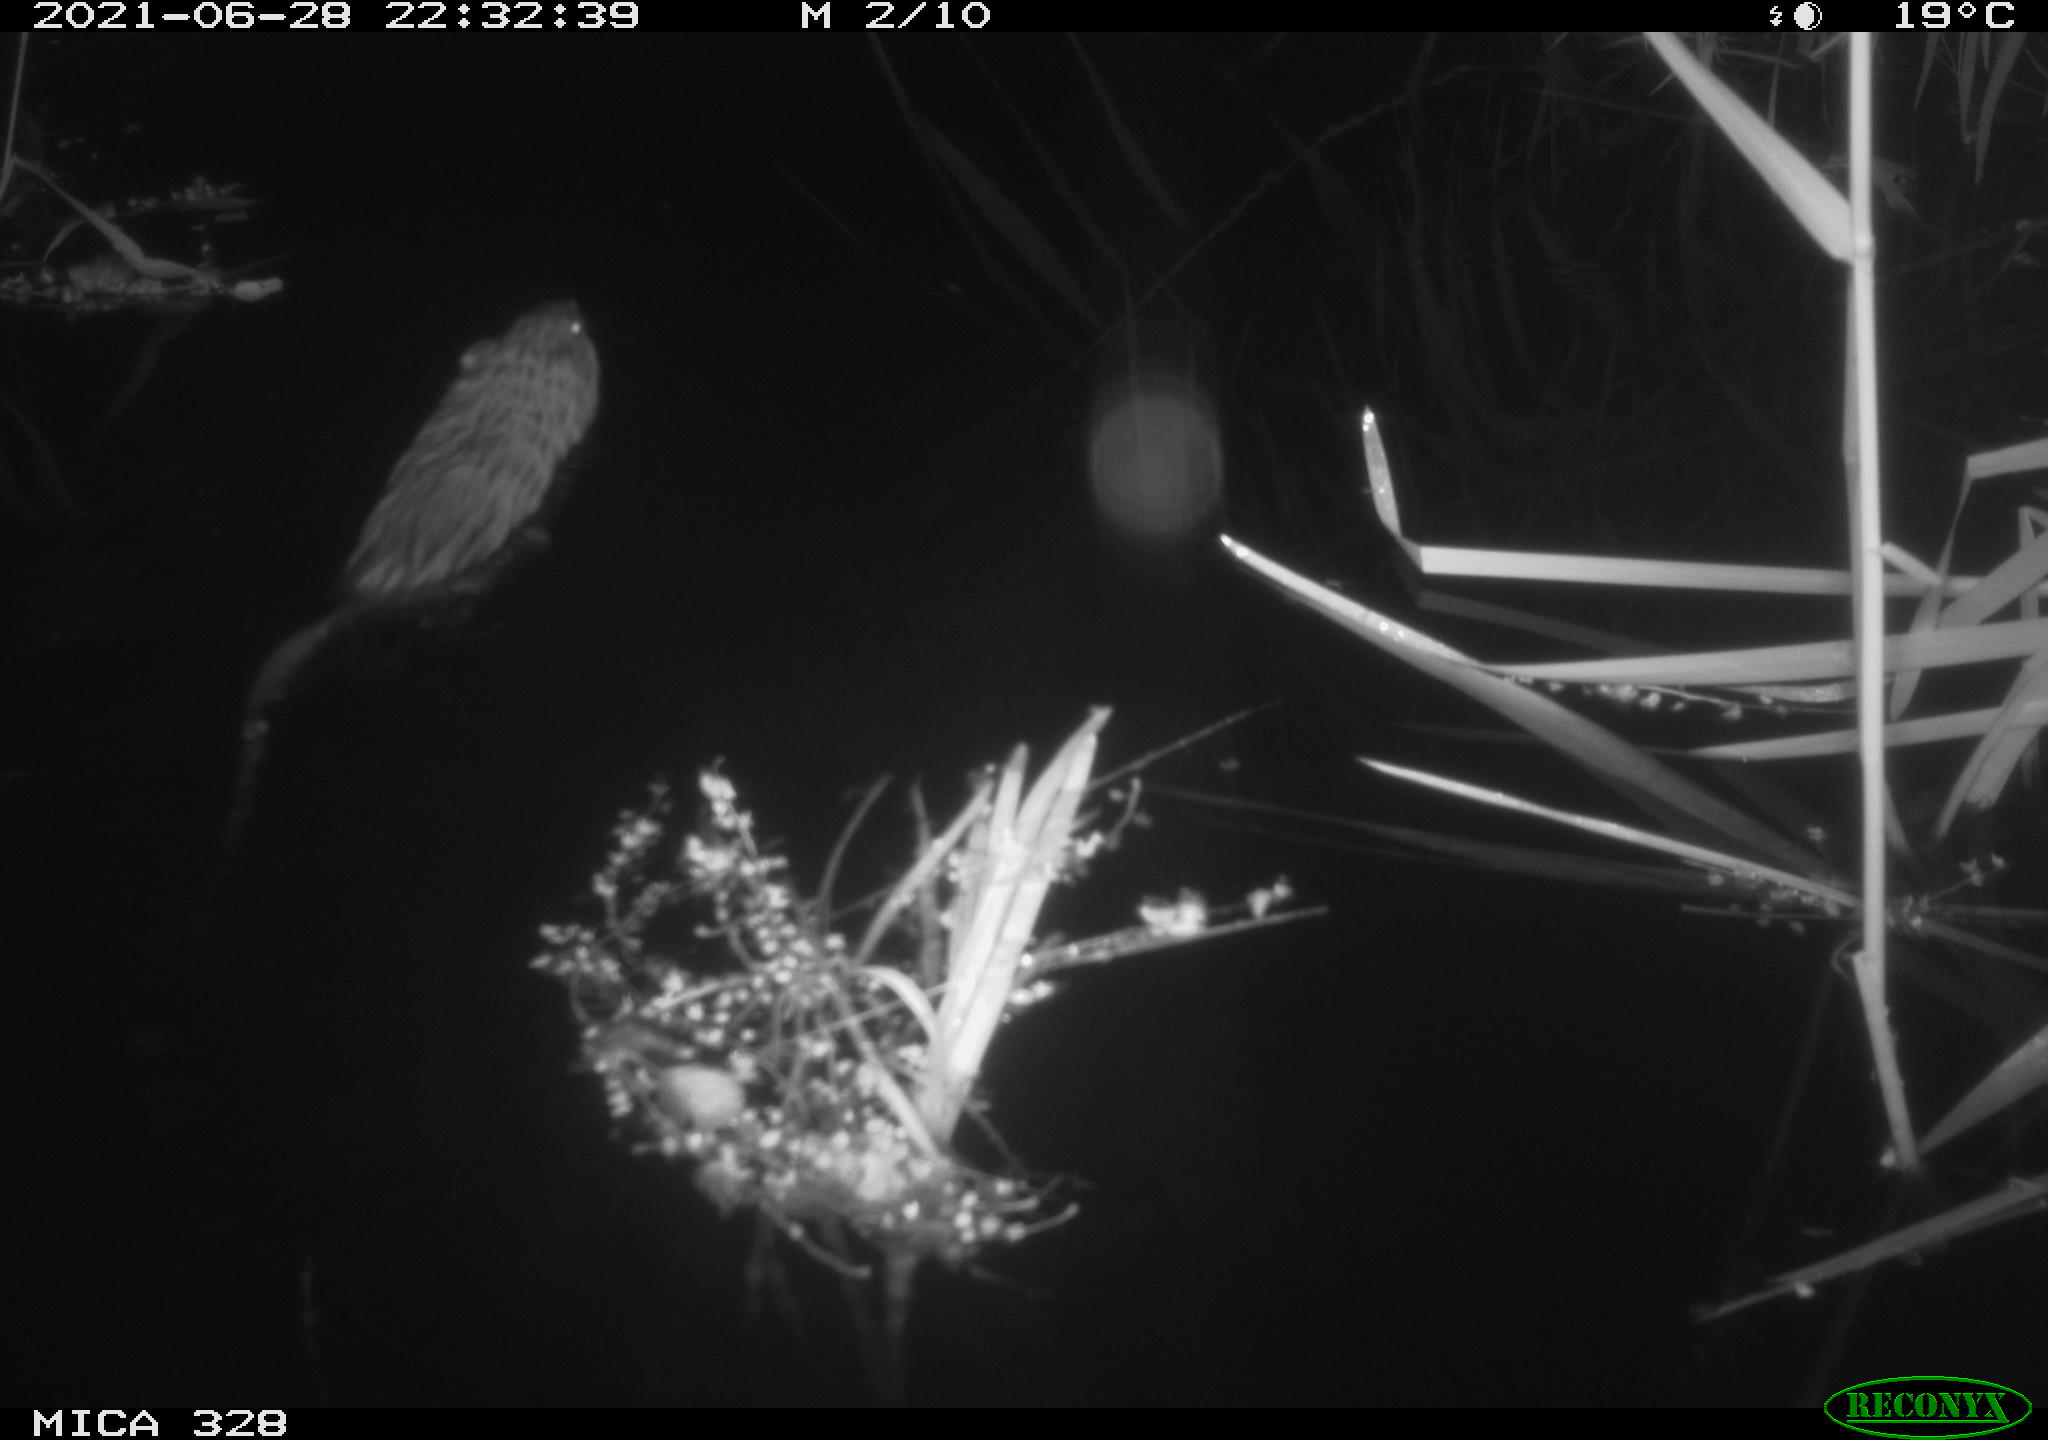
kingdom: Animalia
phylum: Chordata
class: Mammalia
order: Rodentia
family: Cricetidae
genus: Ondatra
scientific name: Ondatra zibethicus
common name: Muskrat
